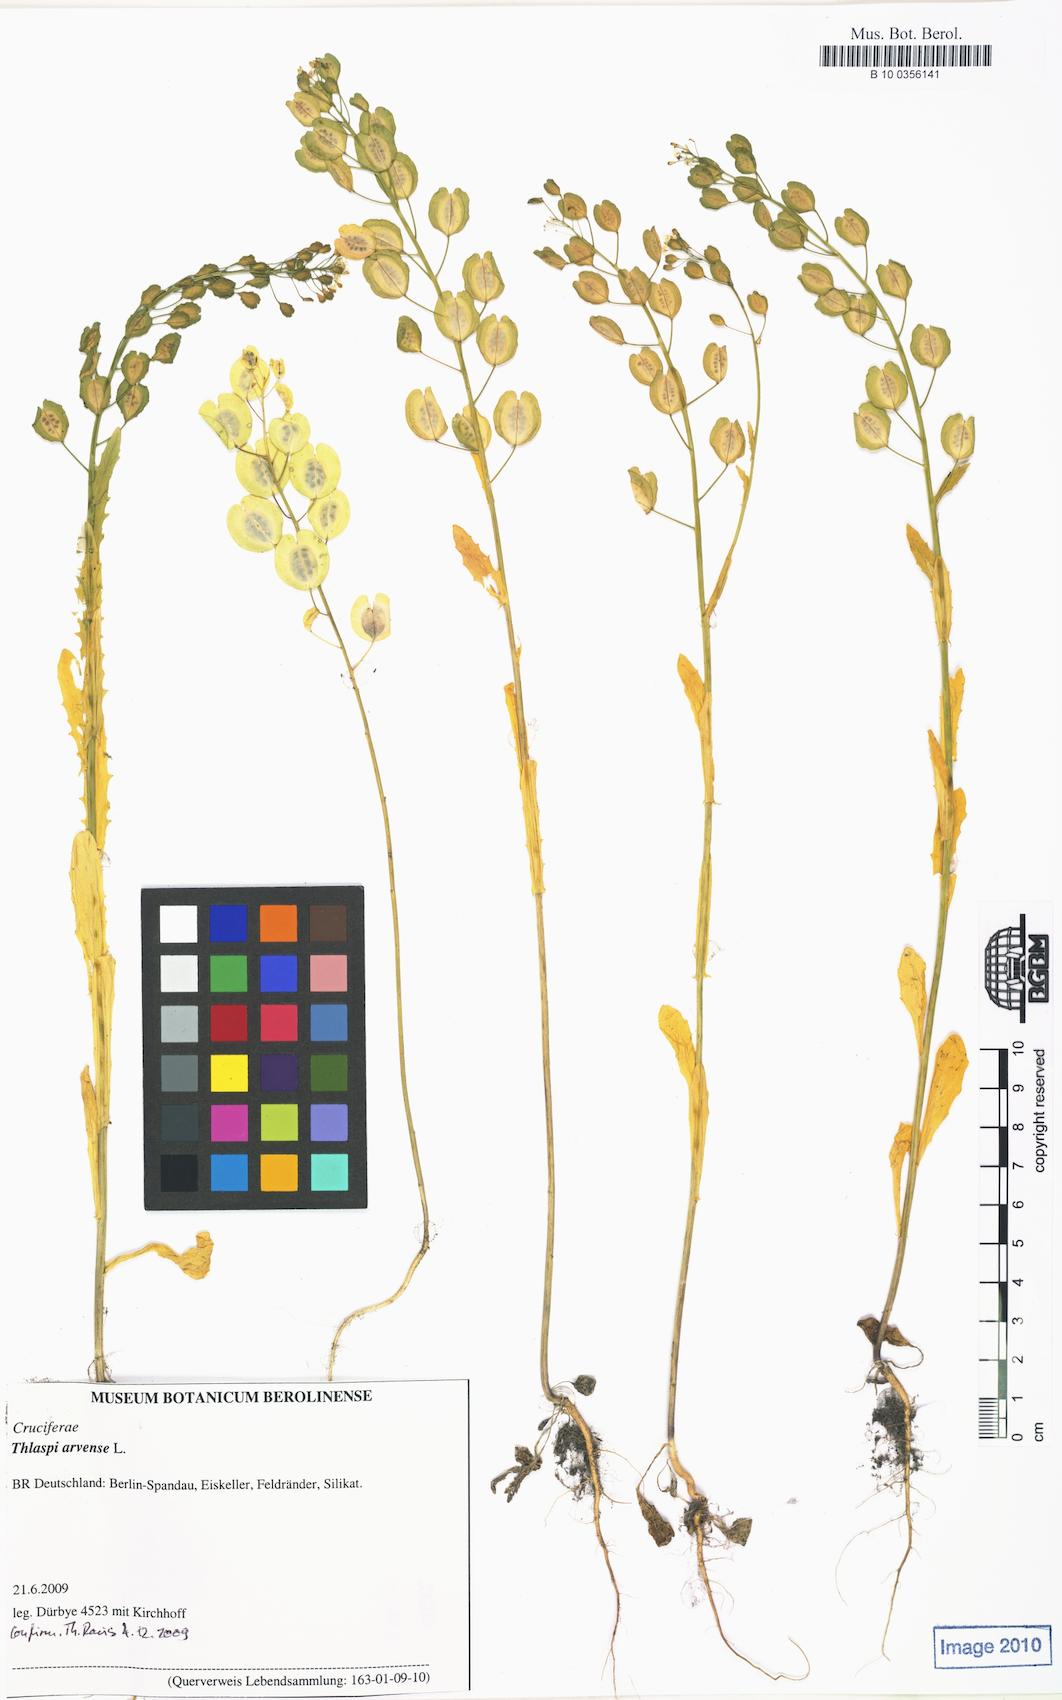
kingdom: Plantae
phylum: Tracheophyta
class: Magnoliopsida
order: Brassicales
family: Brassicaceae
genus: Thlaspi
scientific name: Thlaspi arvense
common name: Field pennycress
